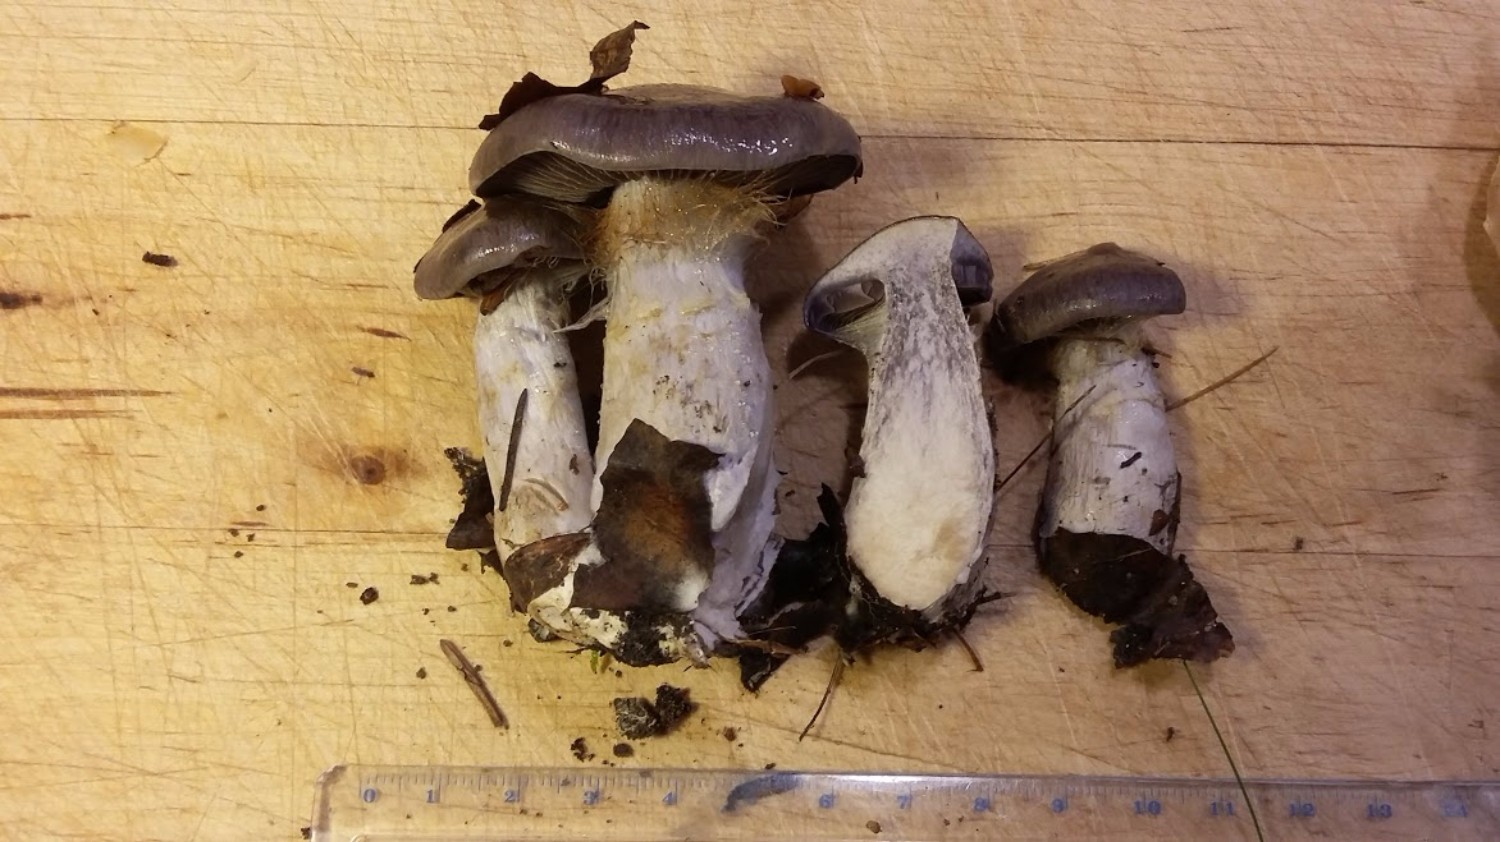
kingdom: Fungi
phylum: Basidiomycota
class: Agaricomycetes
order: Agaricales
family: Cortinariaceae
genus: Cortinarius
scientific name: Cortinarius
